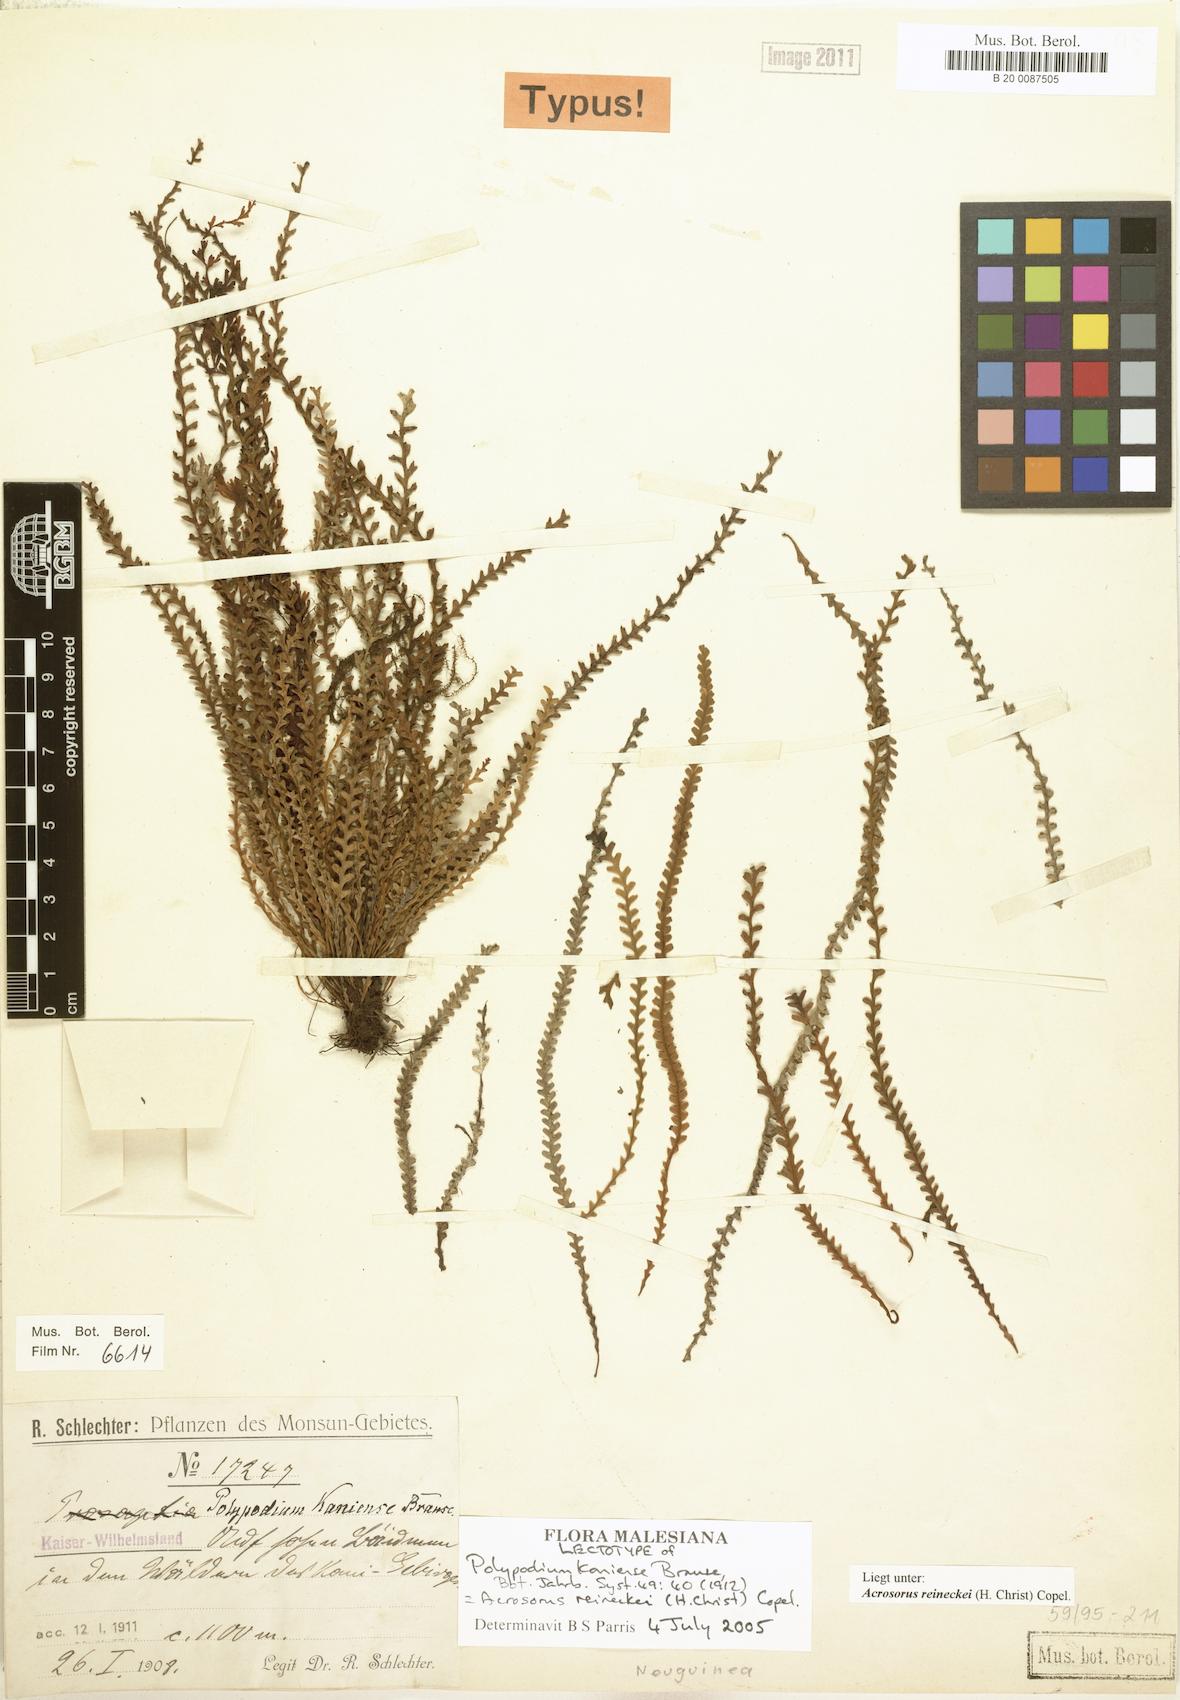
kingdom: Plantae
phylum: Tracheophyta
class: Polypodiopsida
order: Polypodiales
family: Polypodiaceae
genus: Acrosorus
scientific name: Acrosorus reineckei
